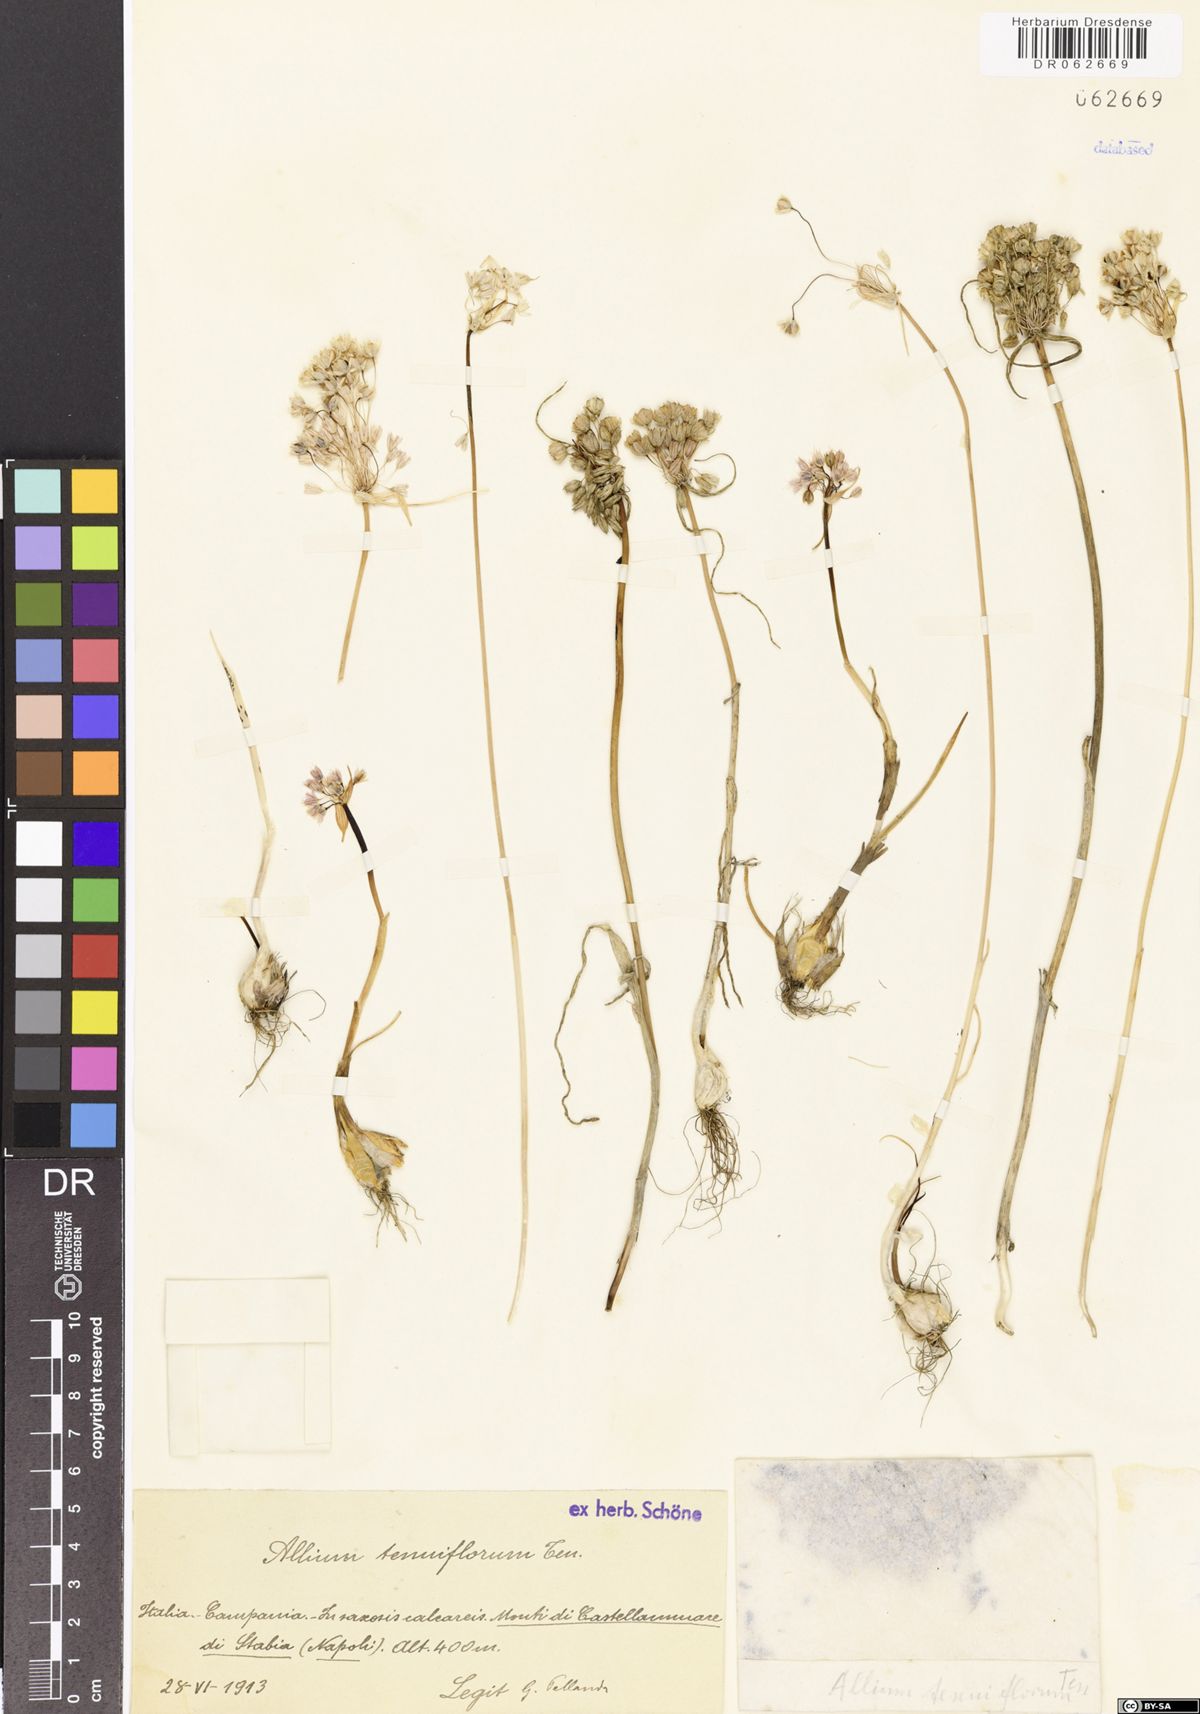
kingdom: Plantae
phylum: Tracheophyta
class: Liliopsida
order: Asparagales
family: Amaryllidaceae
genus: Allium
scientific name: Allium tenuiflorum
